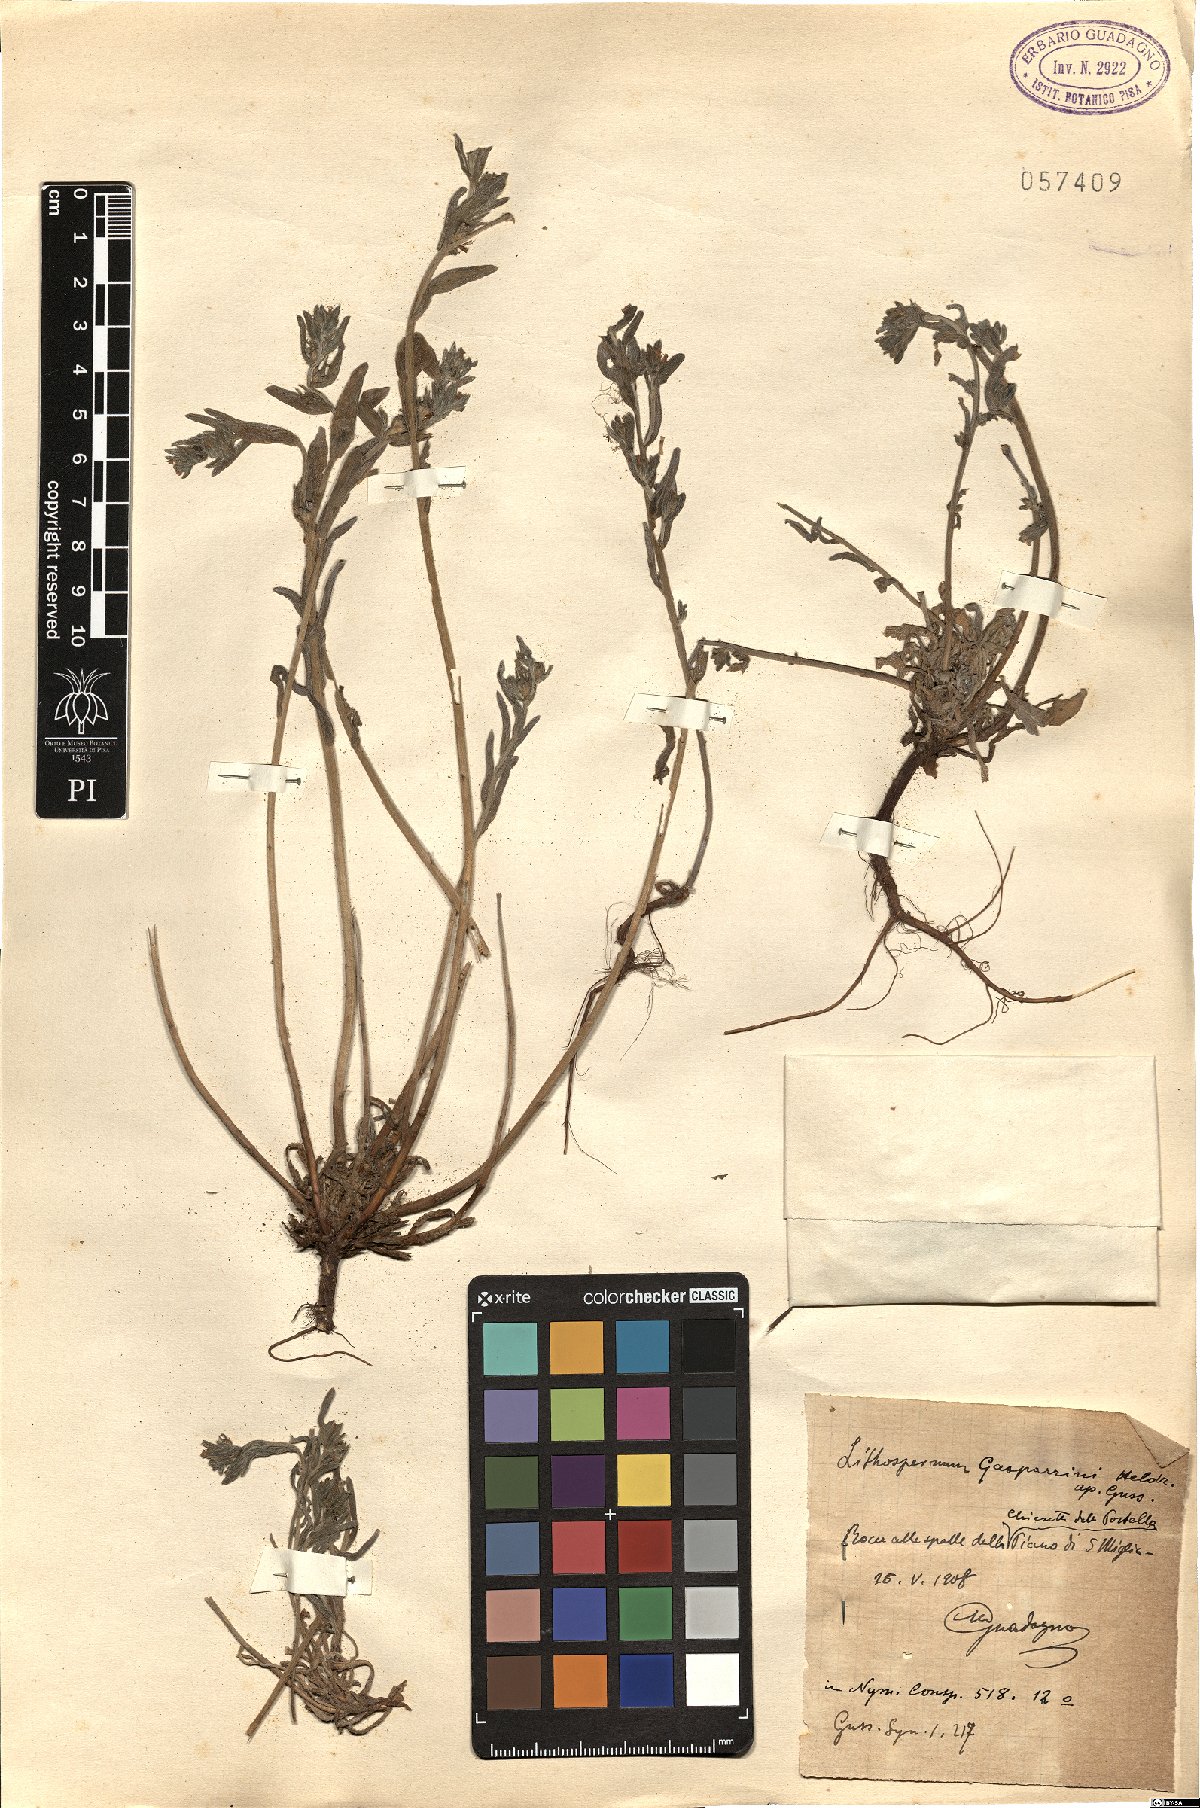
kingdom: Plantae
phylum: Tracheophyta
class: Magnoliopsida
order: Boraginales
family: Boraginaceae
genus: Buglossoides
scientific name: Buglossoides incrassata
